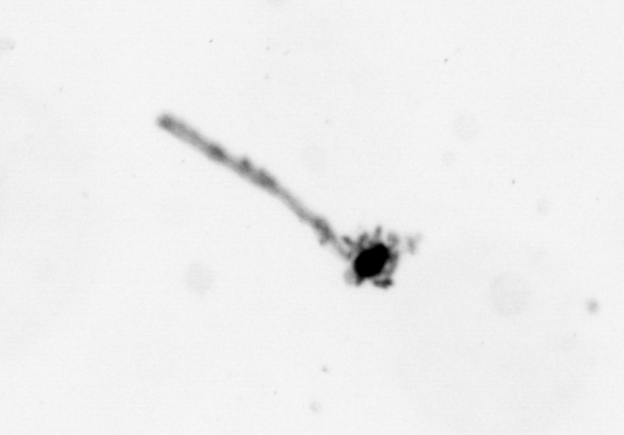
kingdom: Animalia
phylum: Cnidaria
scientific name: Cnidaria
